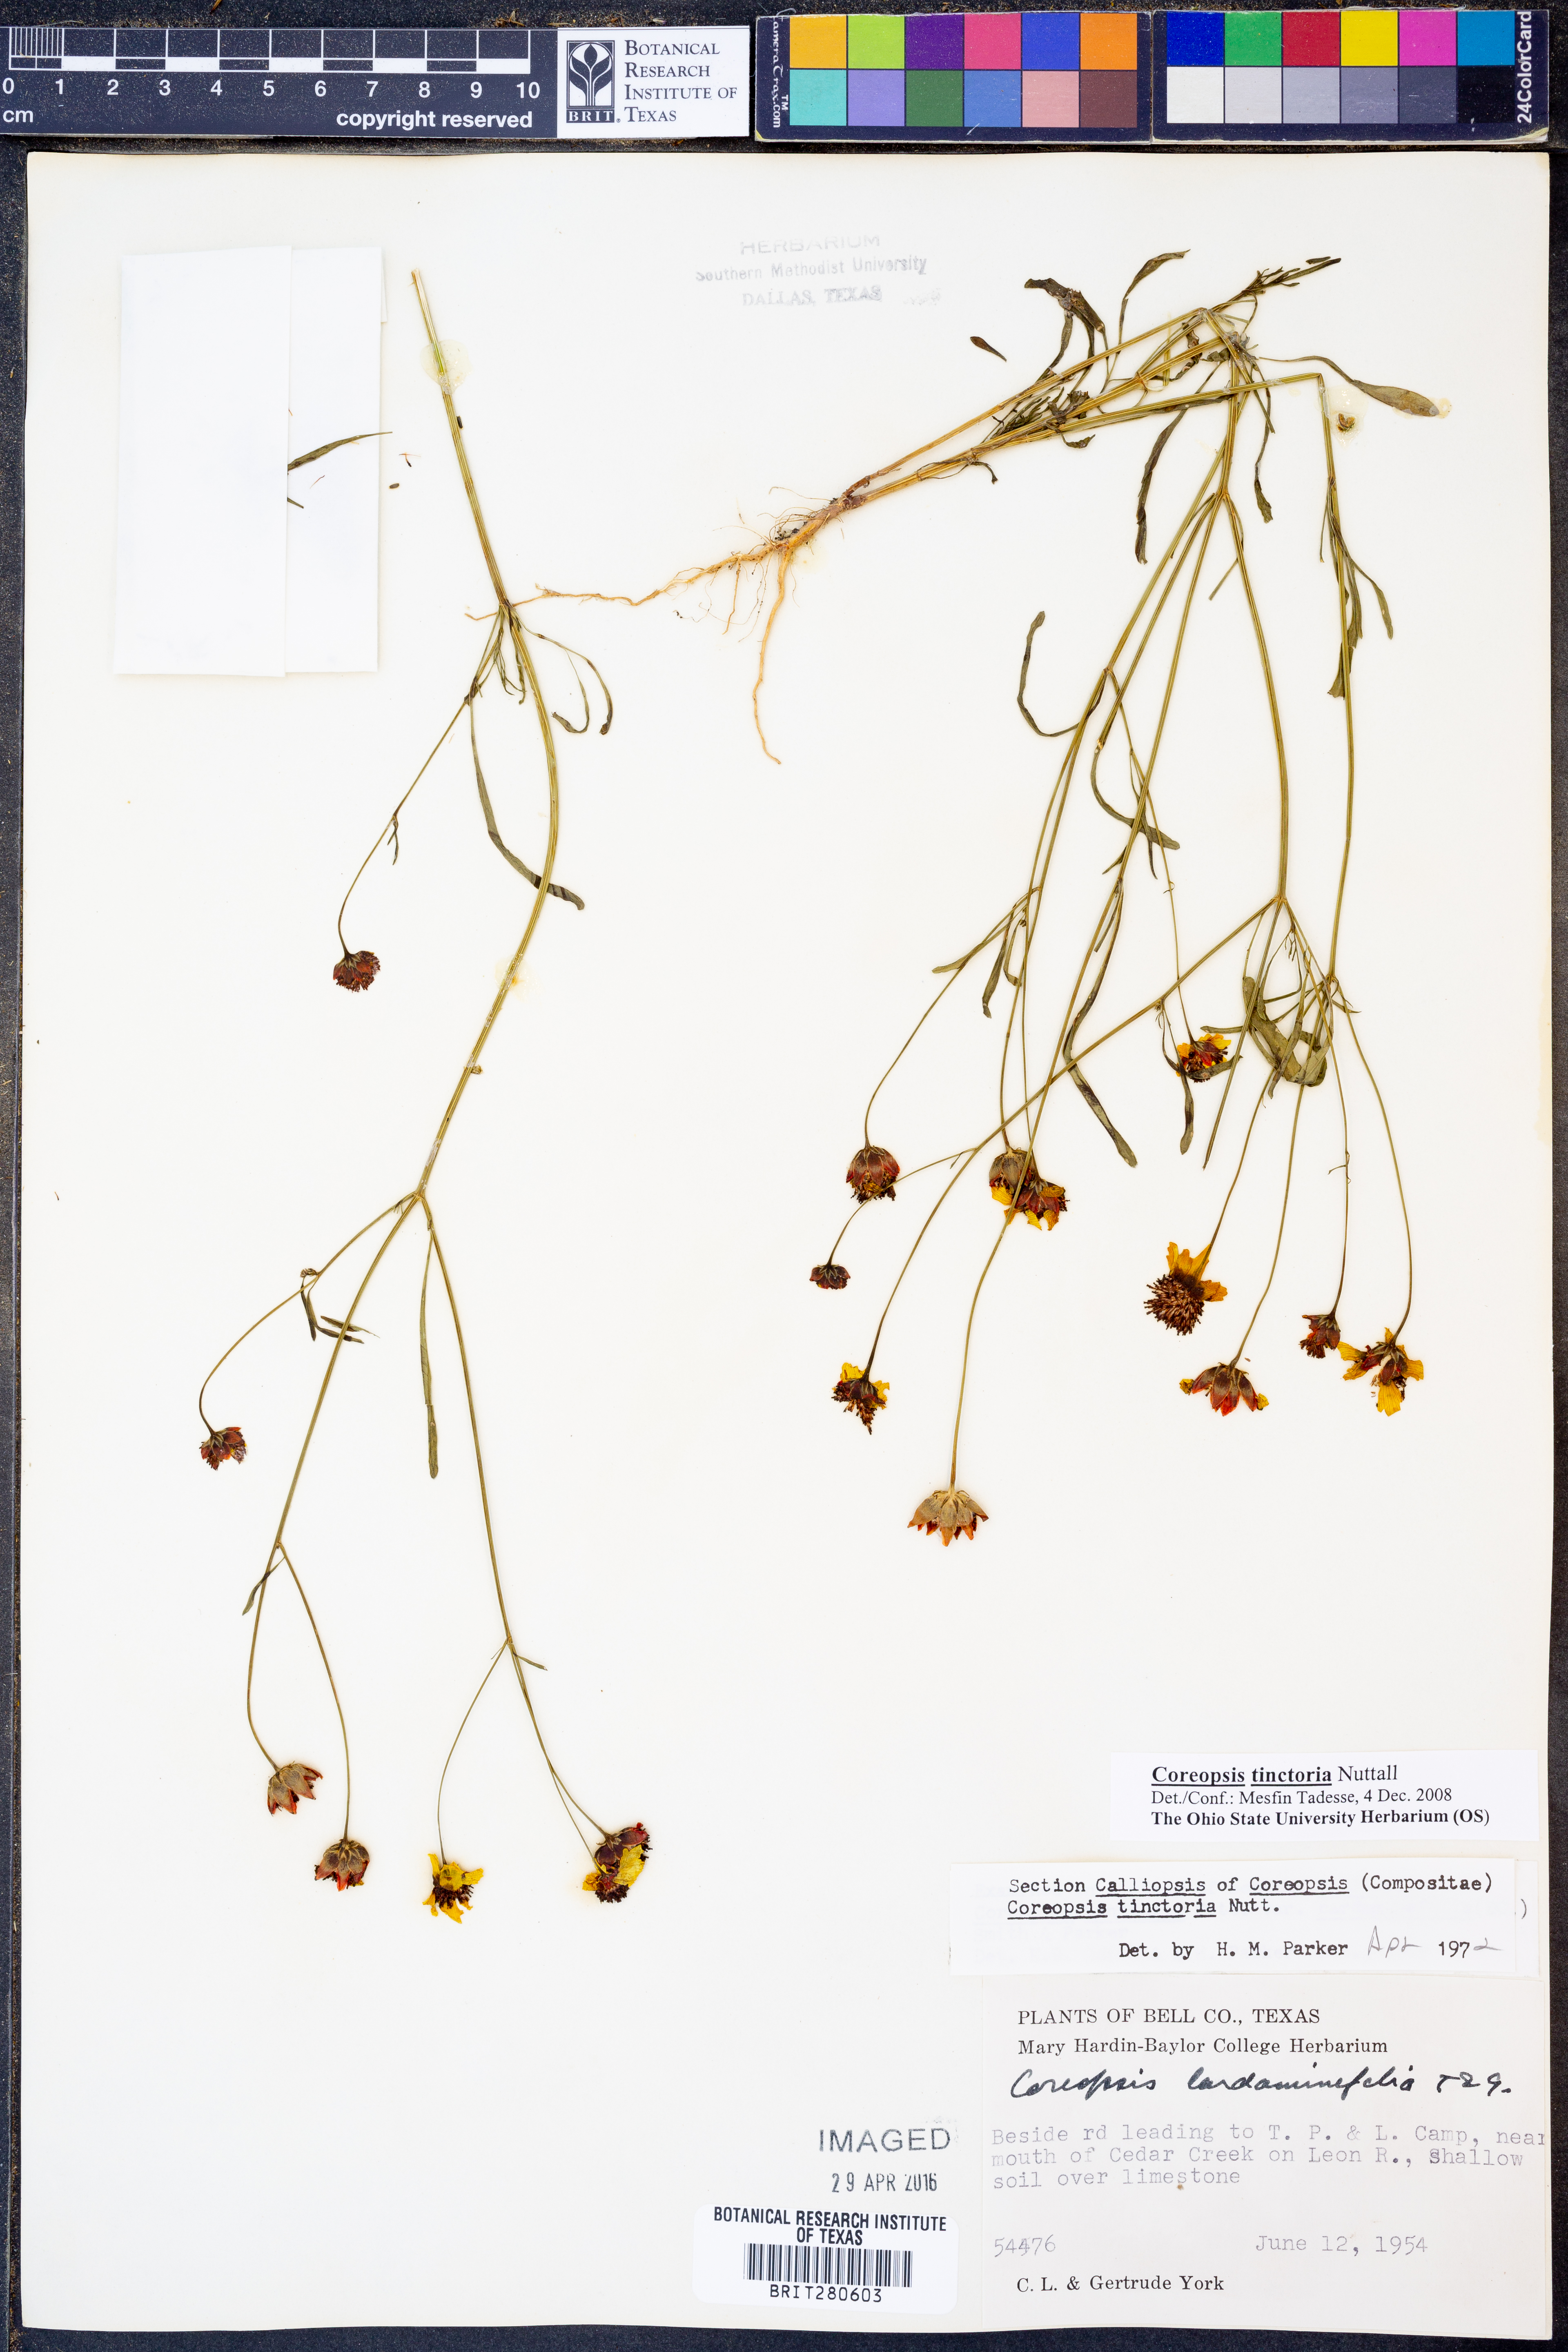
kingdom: Plantae
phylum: Tracheophyta
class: Magnoliopsida
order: Asterales
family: Asteraceae
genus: Coreopsis
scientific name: Coreopsis tinctoria
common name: Garden tickseed
